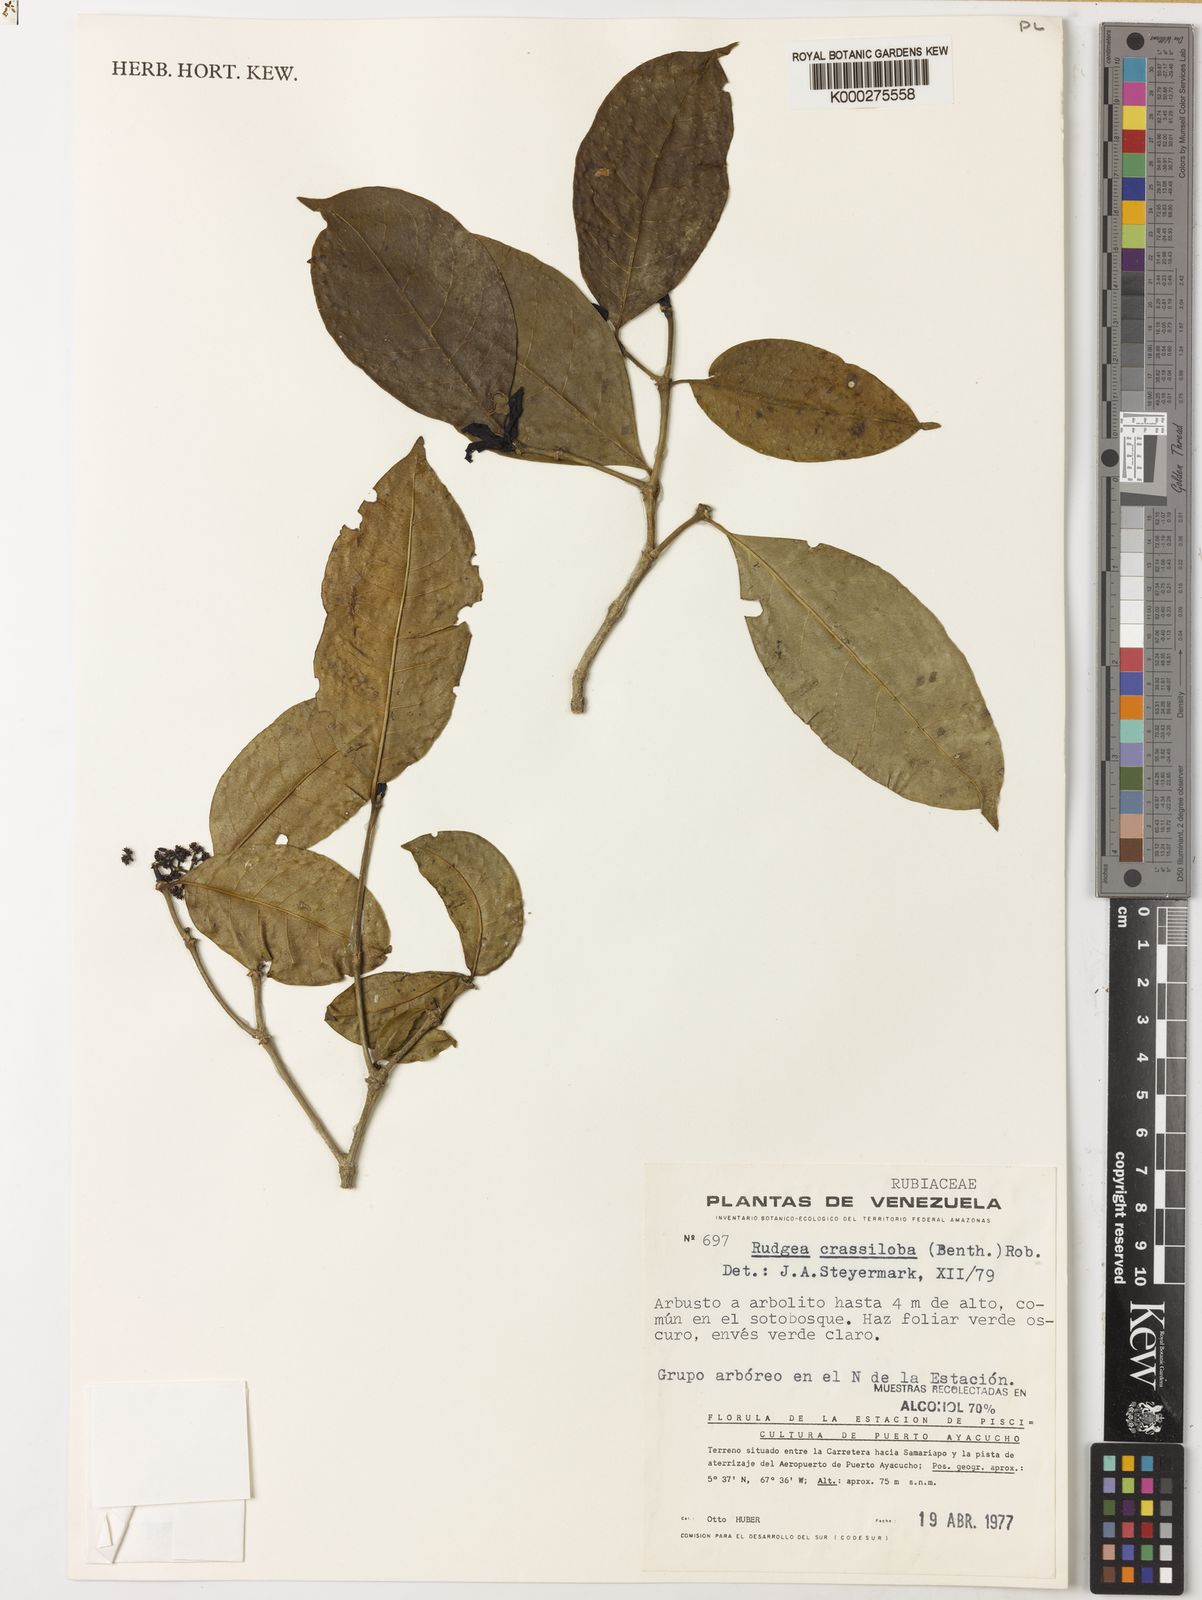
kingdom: Plantae
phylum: Tracheophyta
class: Magnoliopsida
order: Gentianales
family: Rubiaceae
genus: Rudgea
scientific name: Rudgea crassiloba
